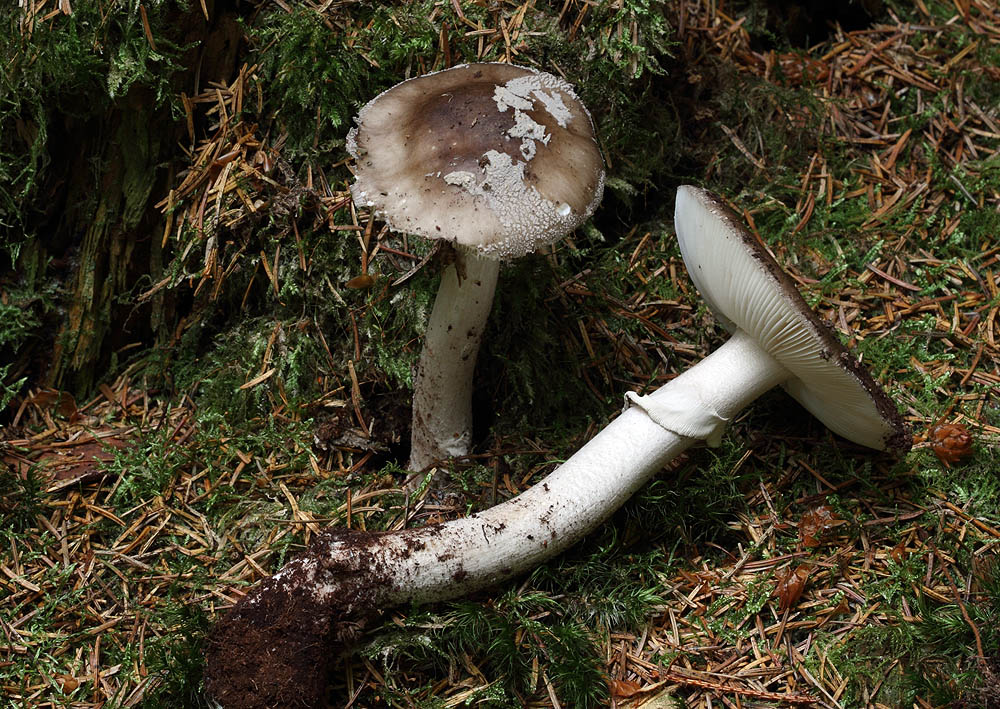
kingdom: Fungi
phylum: Basidiomycota
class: Agaricomycetes
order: Agaricales
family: Amanitaceae
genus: Amanita
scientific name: Amanita
